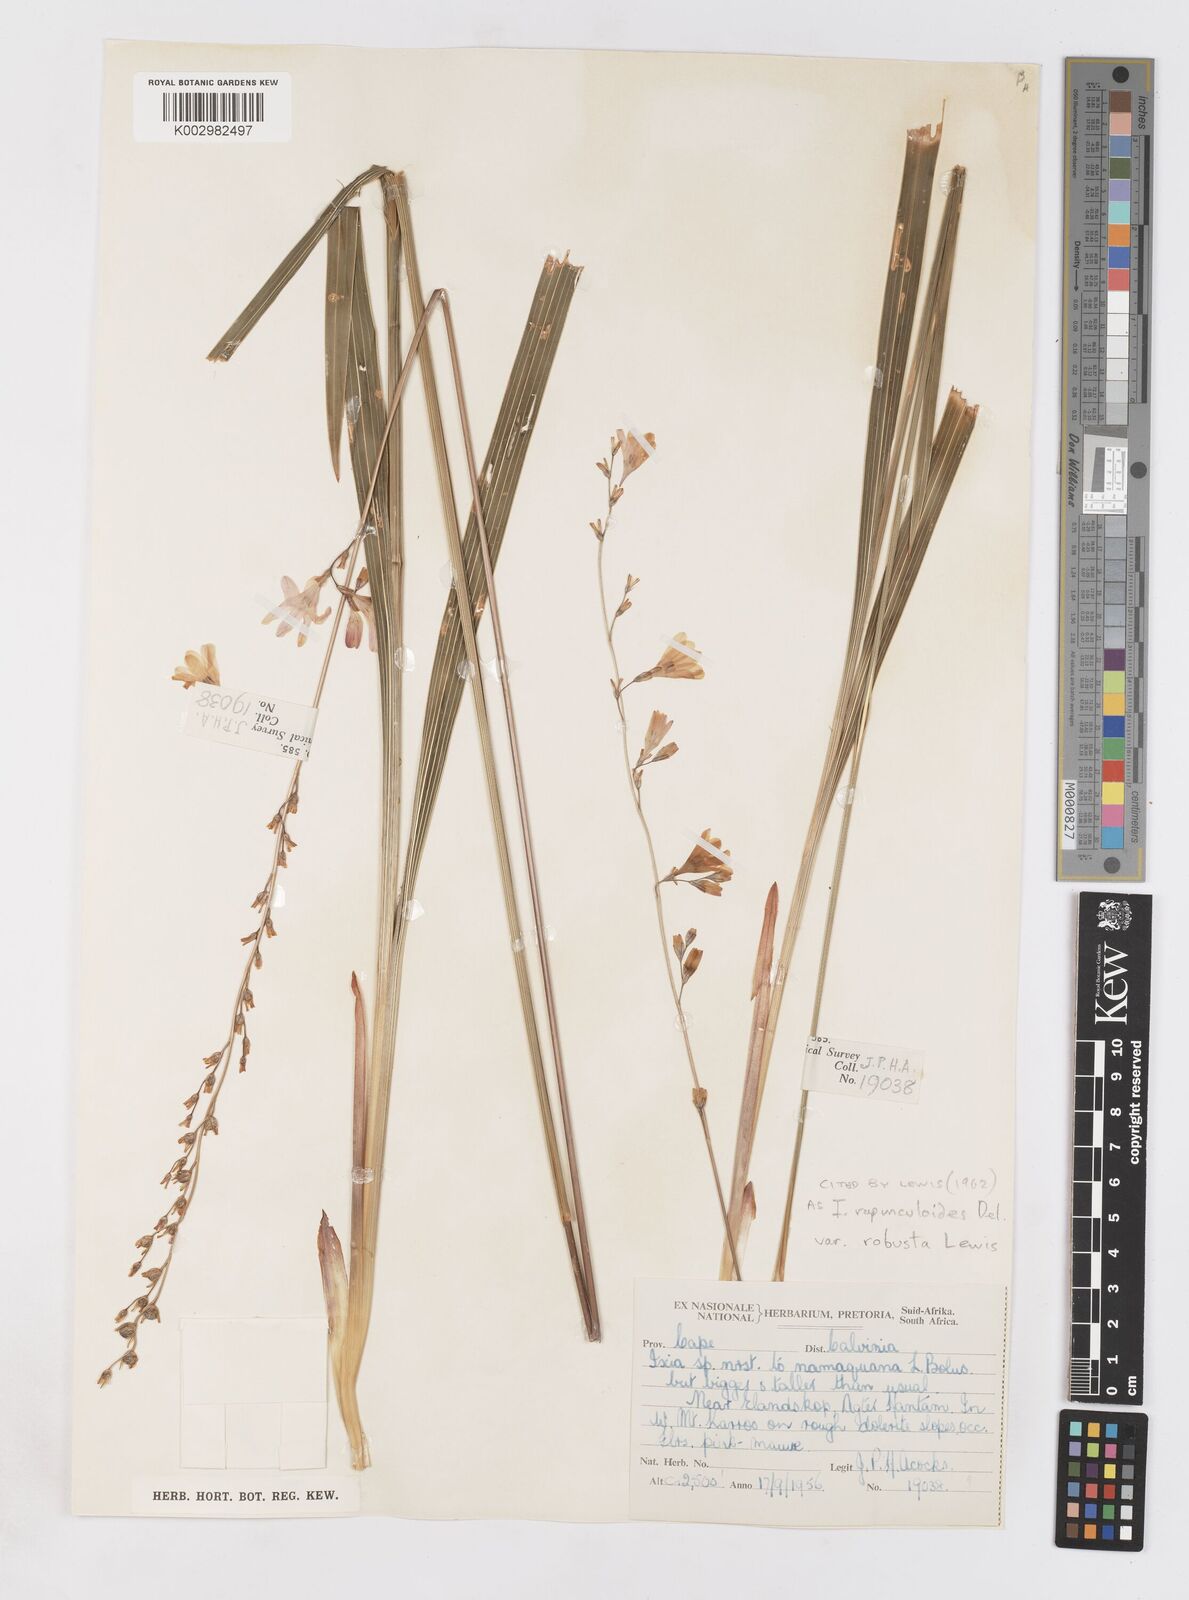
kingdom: Plantae
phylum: Tracheophyta
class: Liliopsida
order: Asparagales
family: Iridaceae
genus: Ixia
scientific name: Ixia rapunculoides
